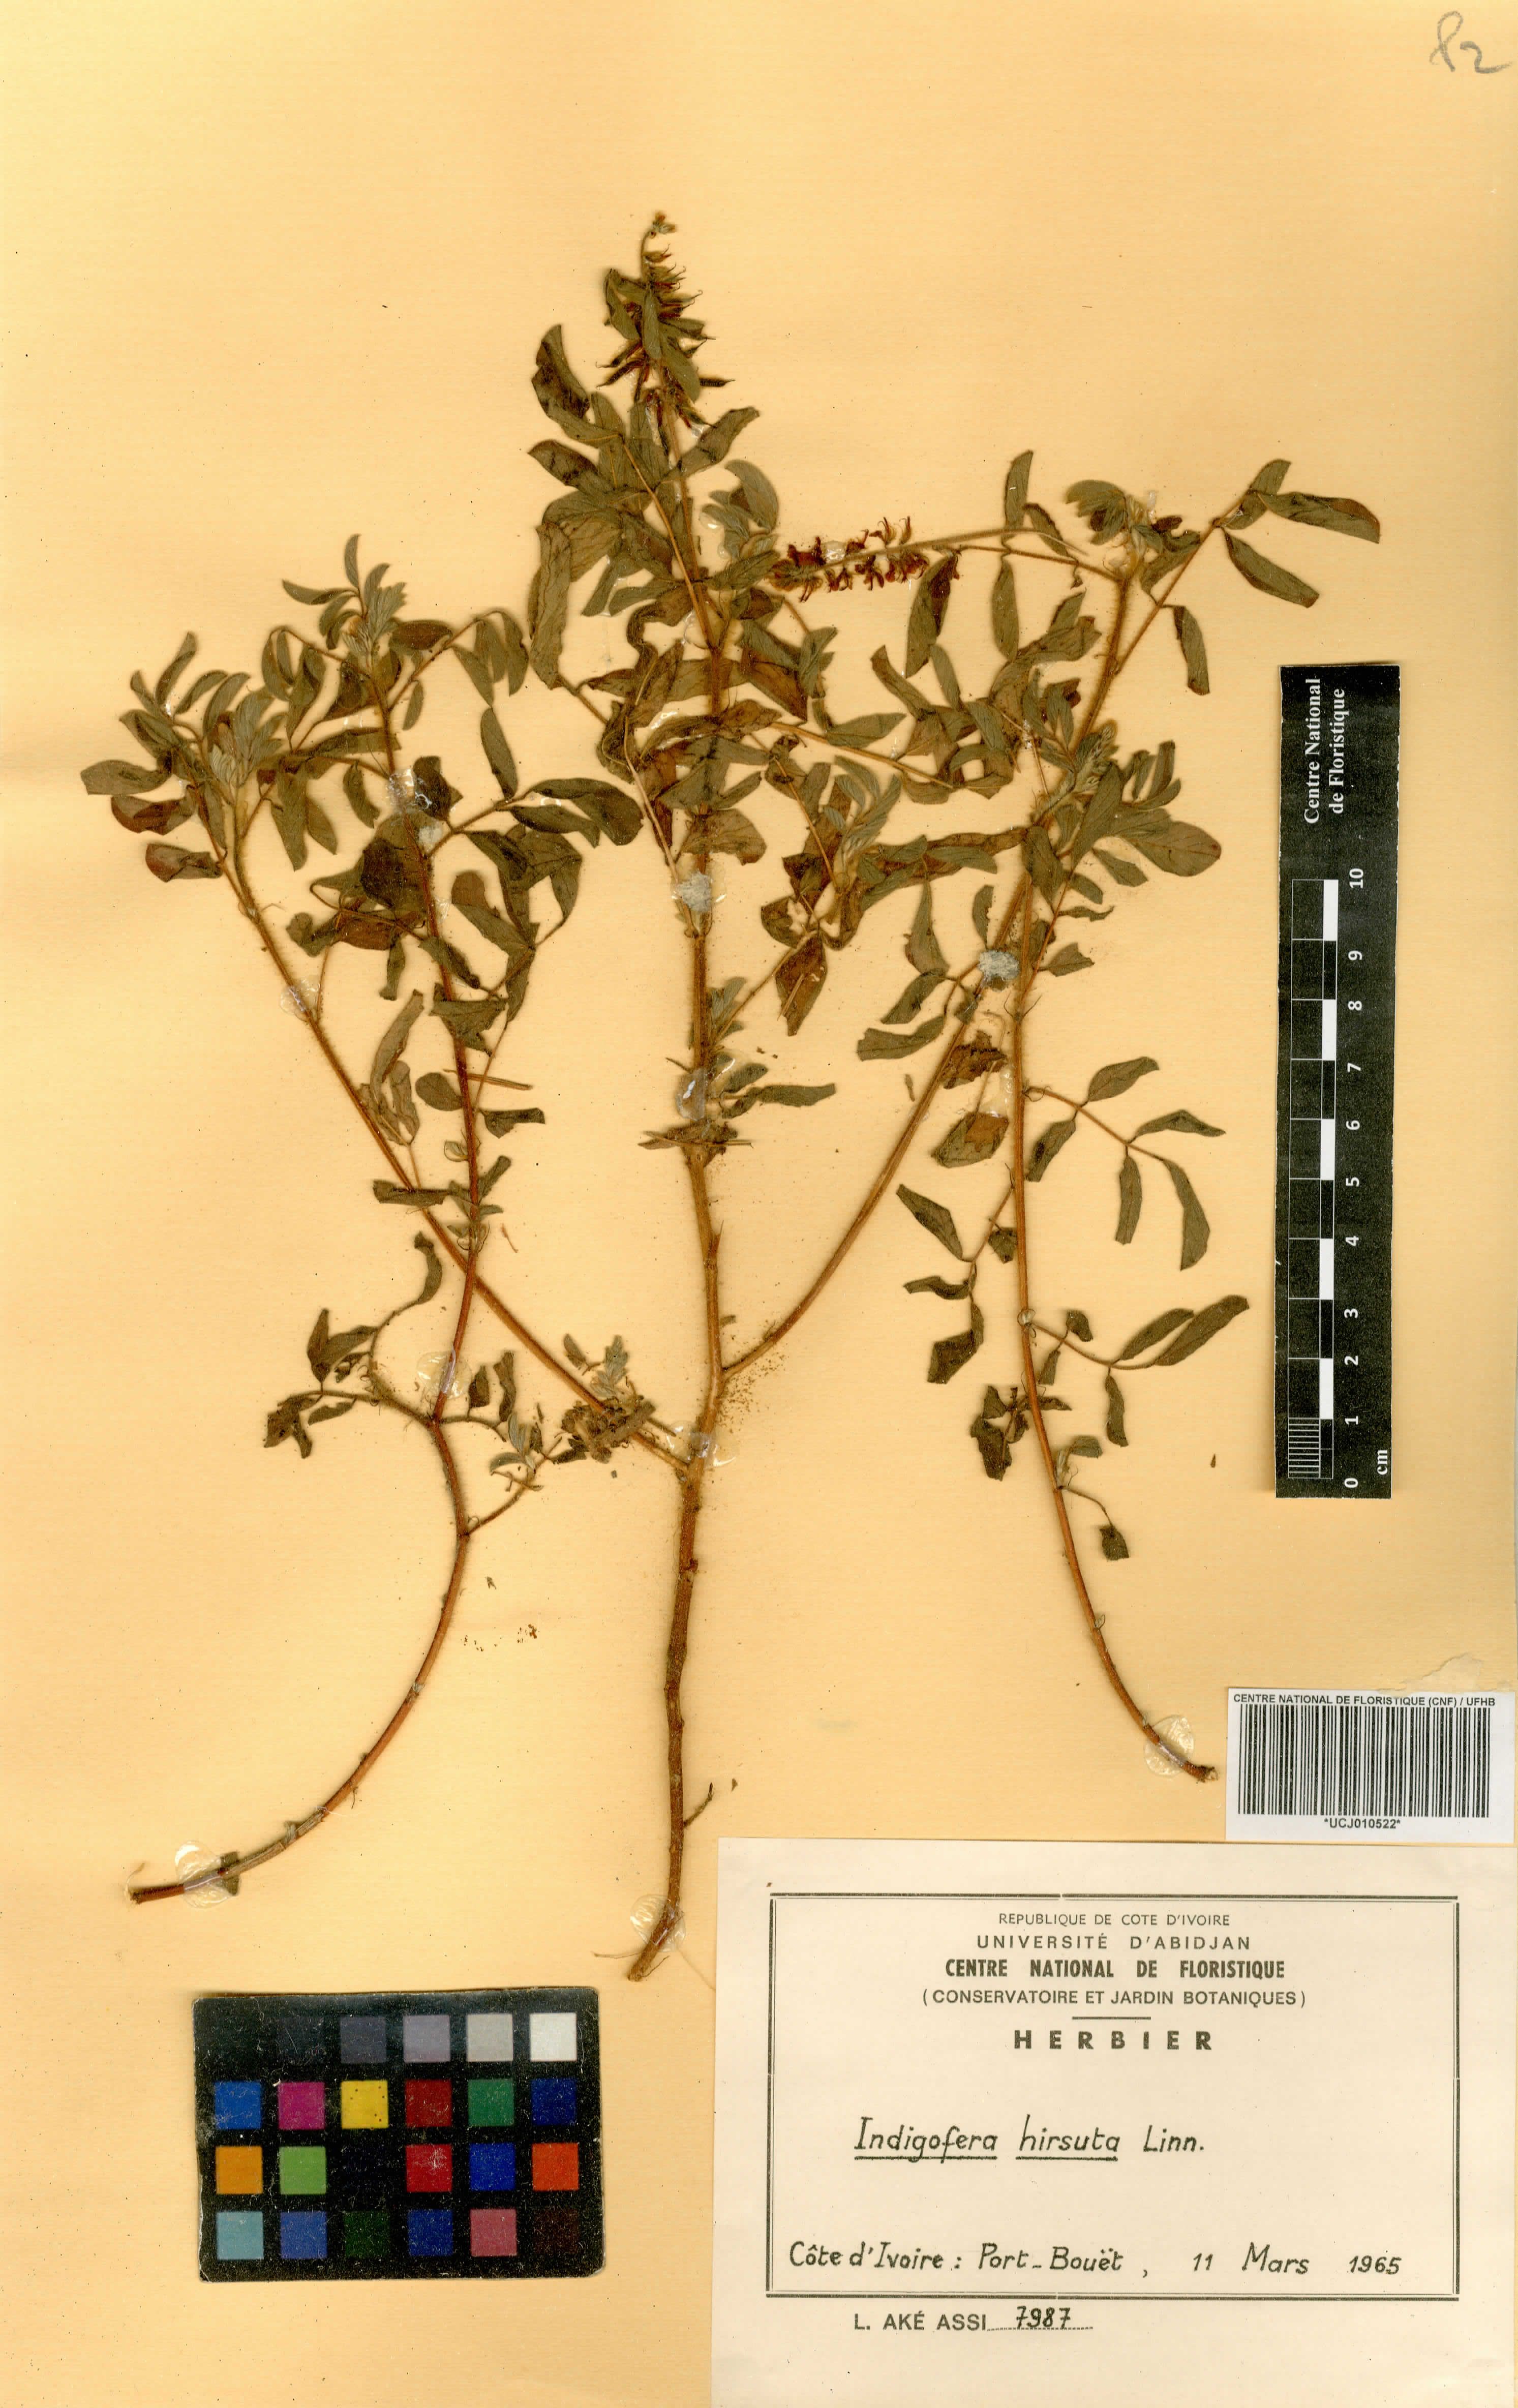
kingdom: Plantae
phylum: Tracheophyta
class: Magnoliopsida
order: Fabales
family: Fabaceae
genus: Indigofera
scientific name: Indigofera hirsuta
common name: Hairy indigo
